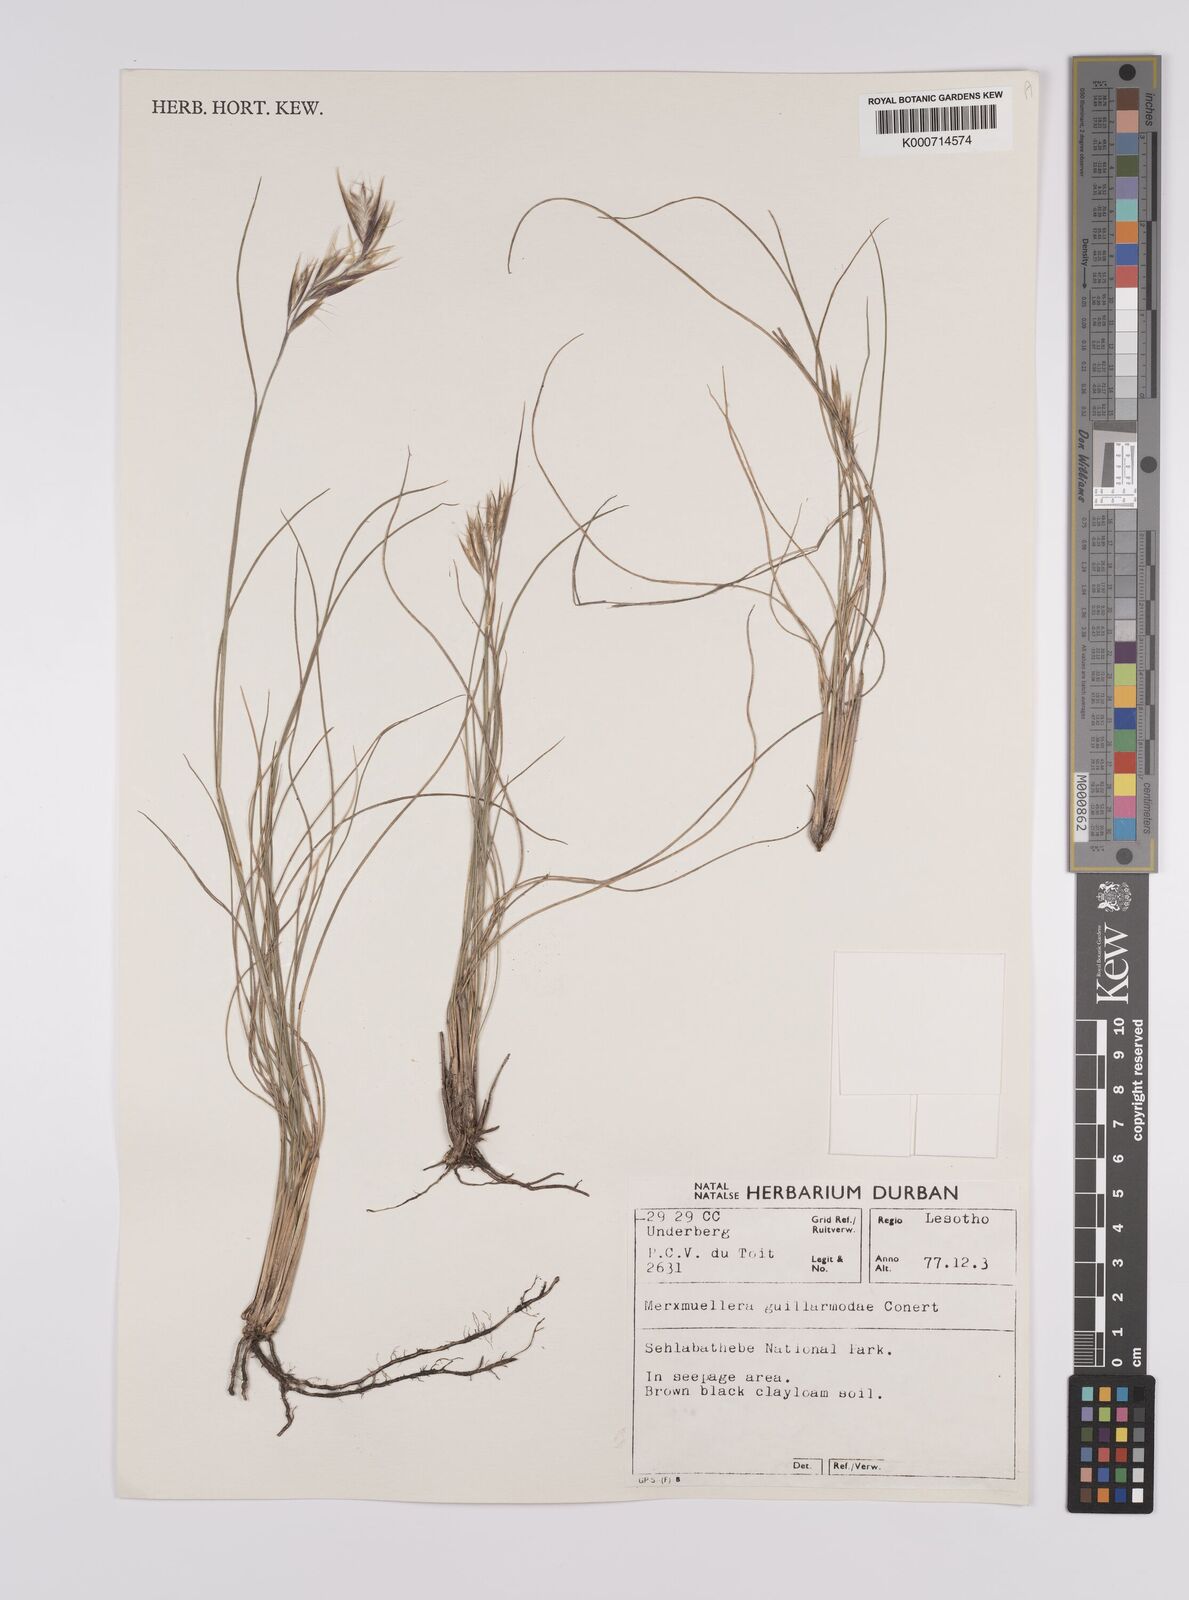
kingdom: Plantae
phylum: Tracheophyta
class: Liliopsida
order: Poales
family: Poaceae
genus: Rytidosperma
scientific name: Rytidosperma
